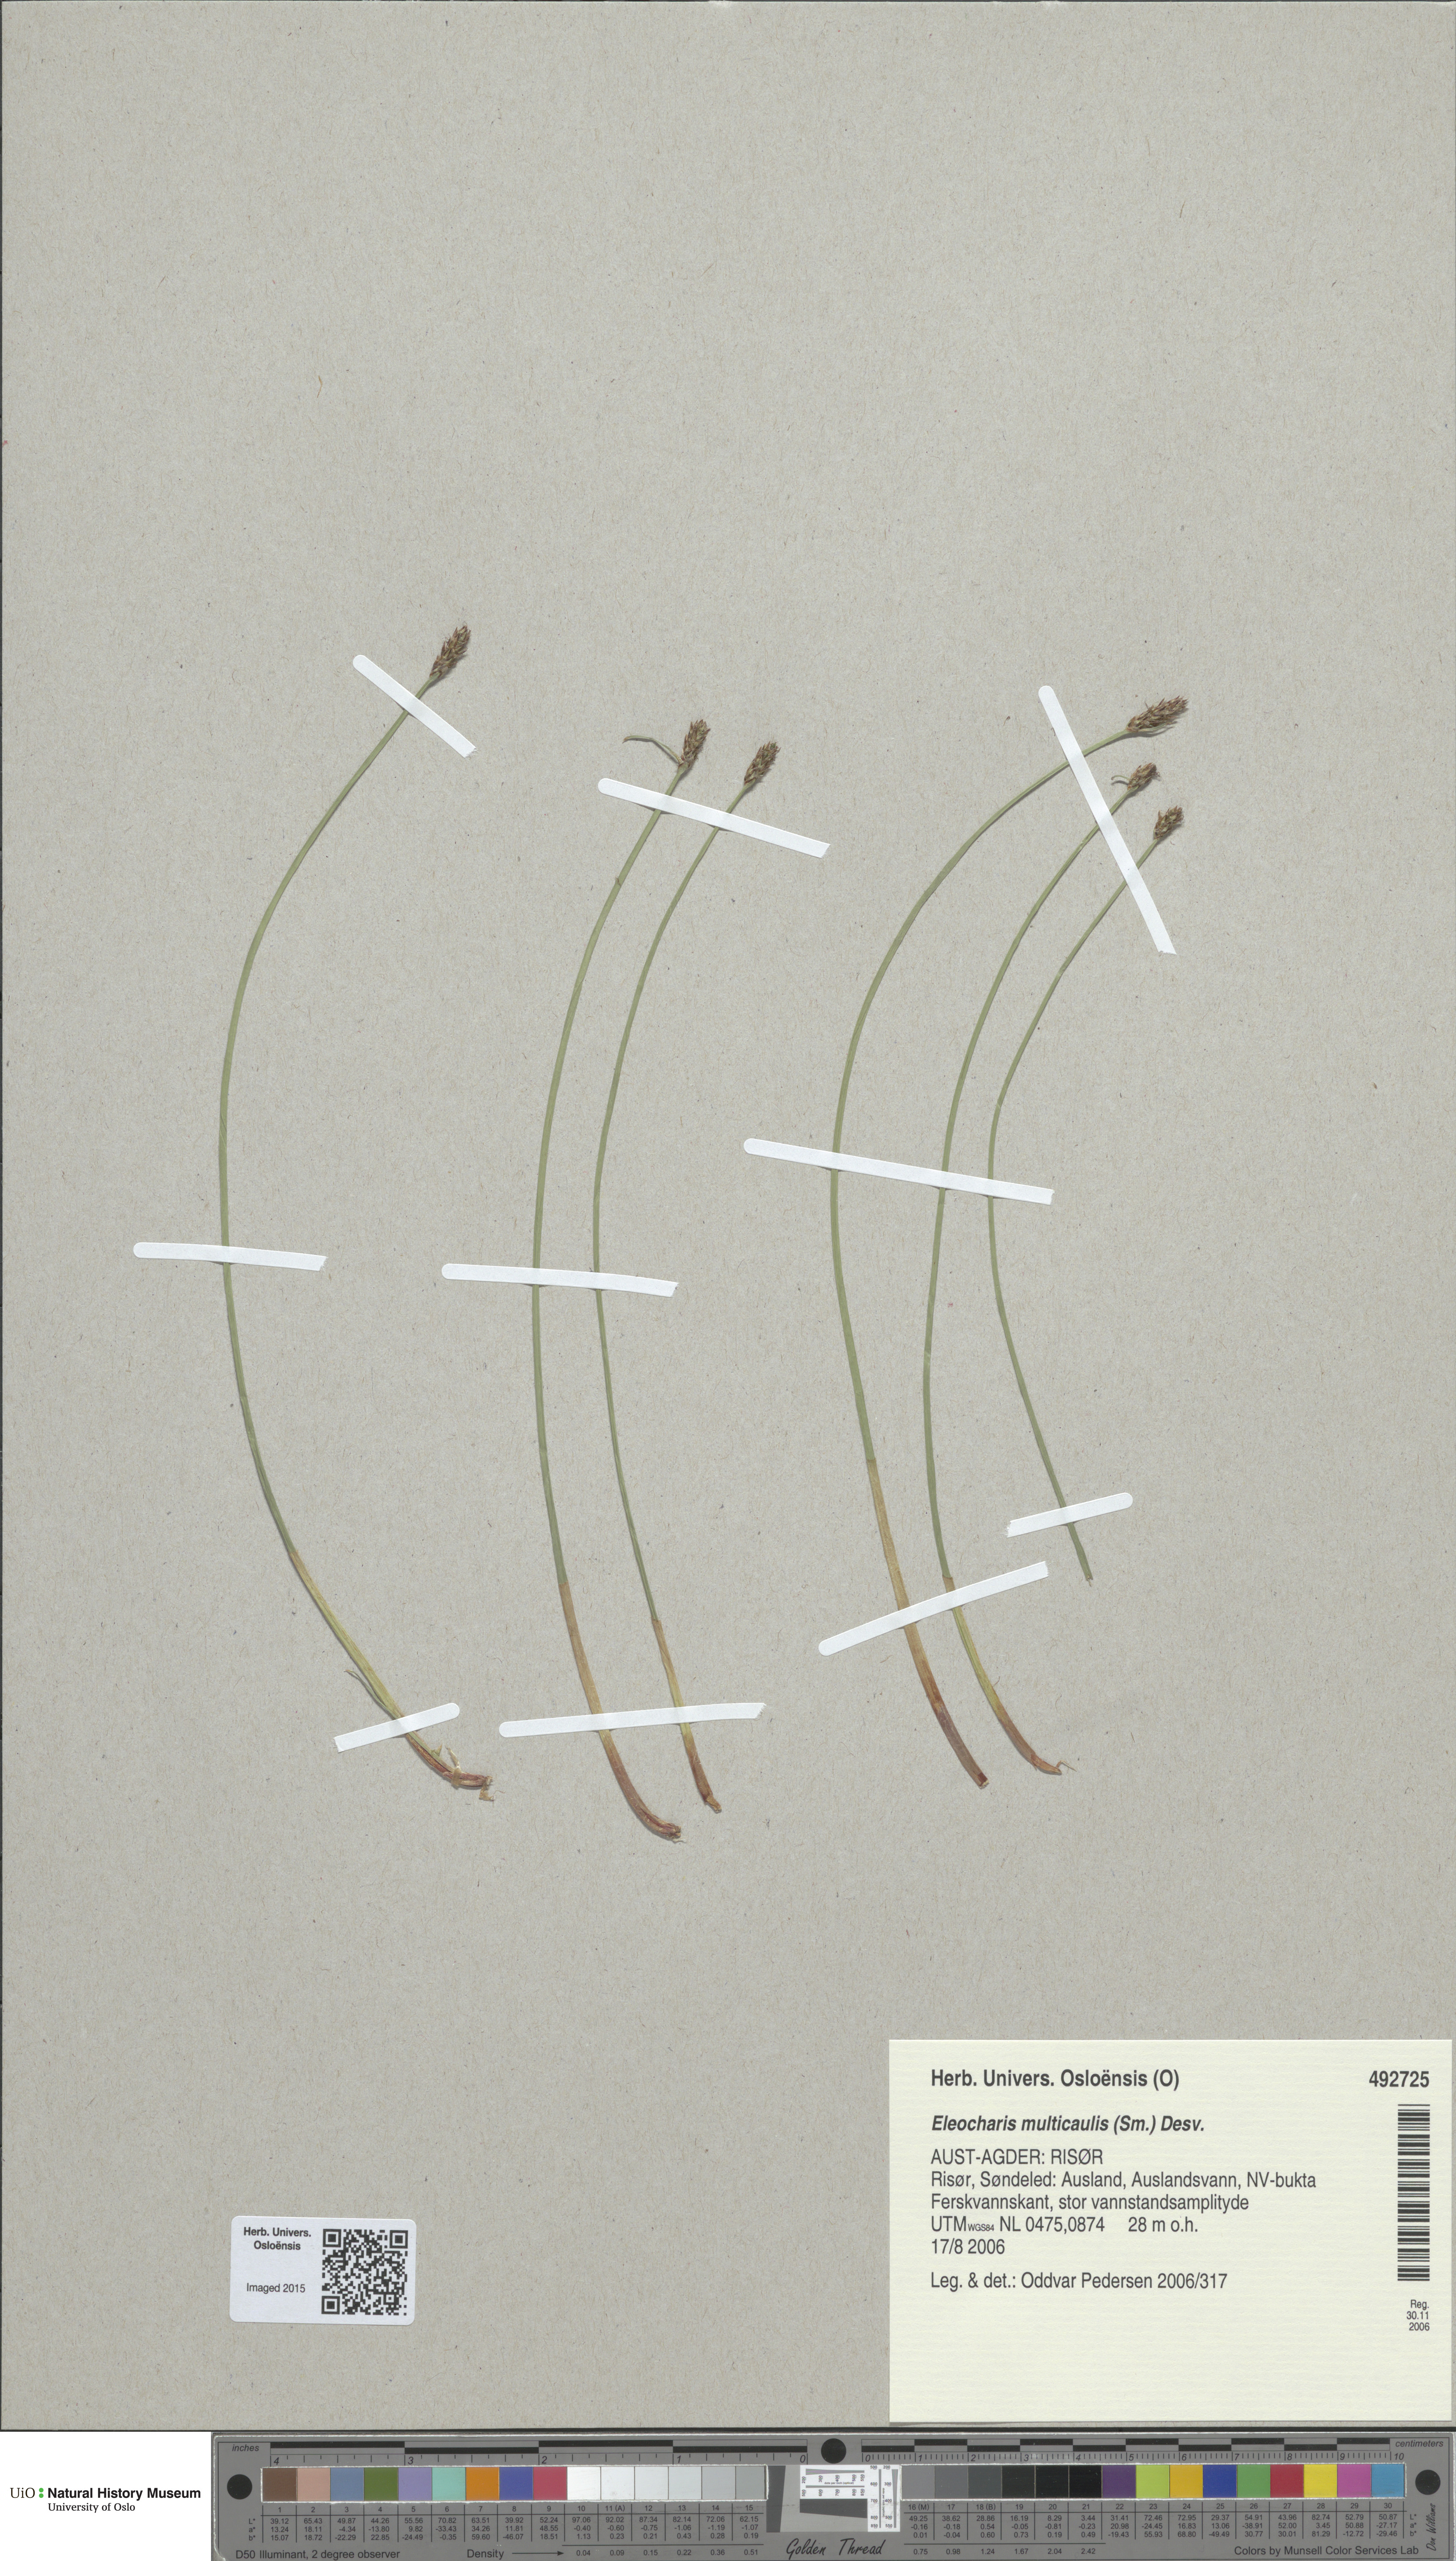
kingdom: Plantae
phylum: Tracheophyta
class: Liliopsida
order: Poales
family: Cyperaceae
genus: Eleocharis
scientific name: Eleocharis multicaulis
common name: Many-stalked spike-rush
